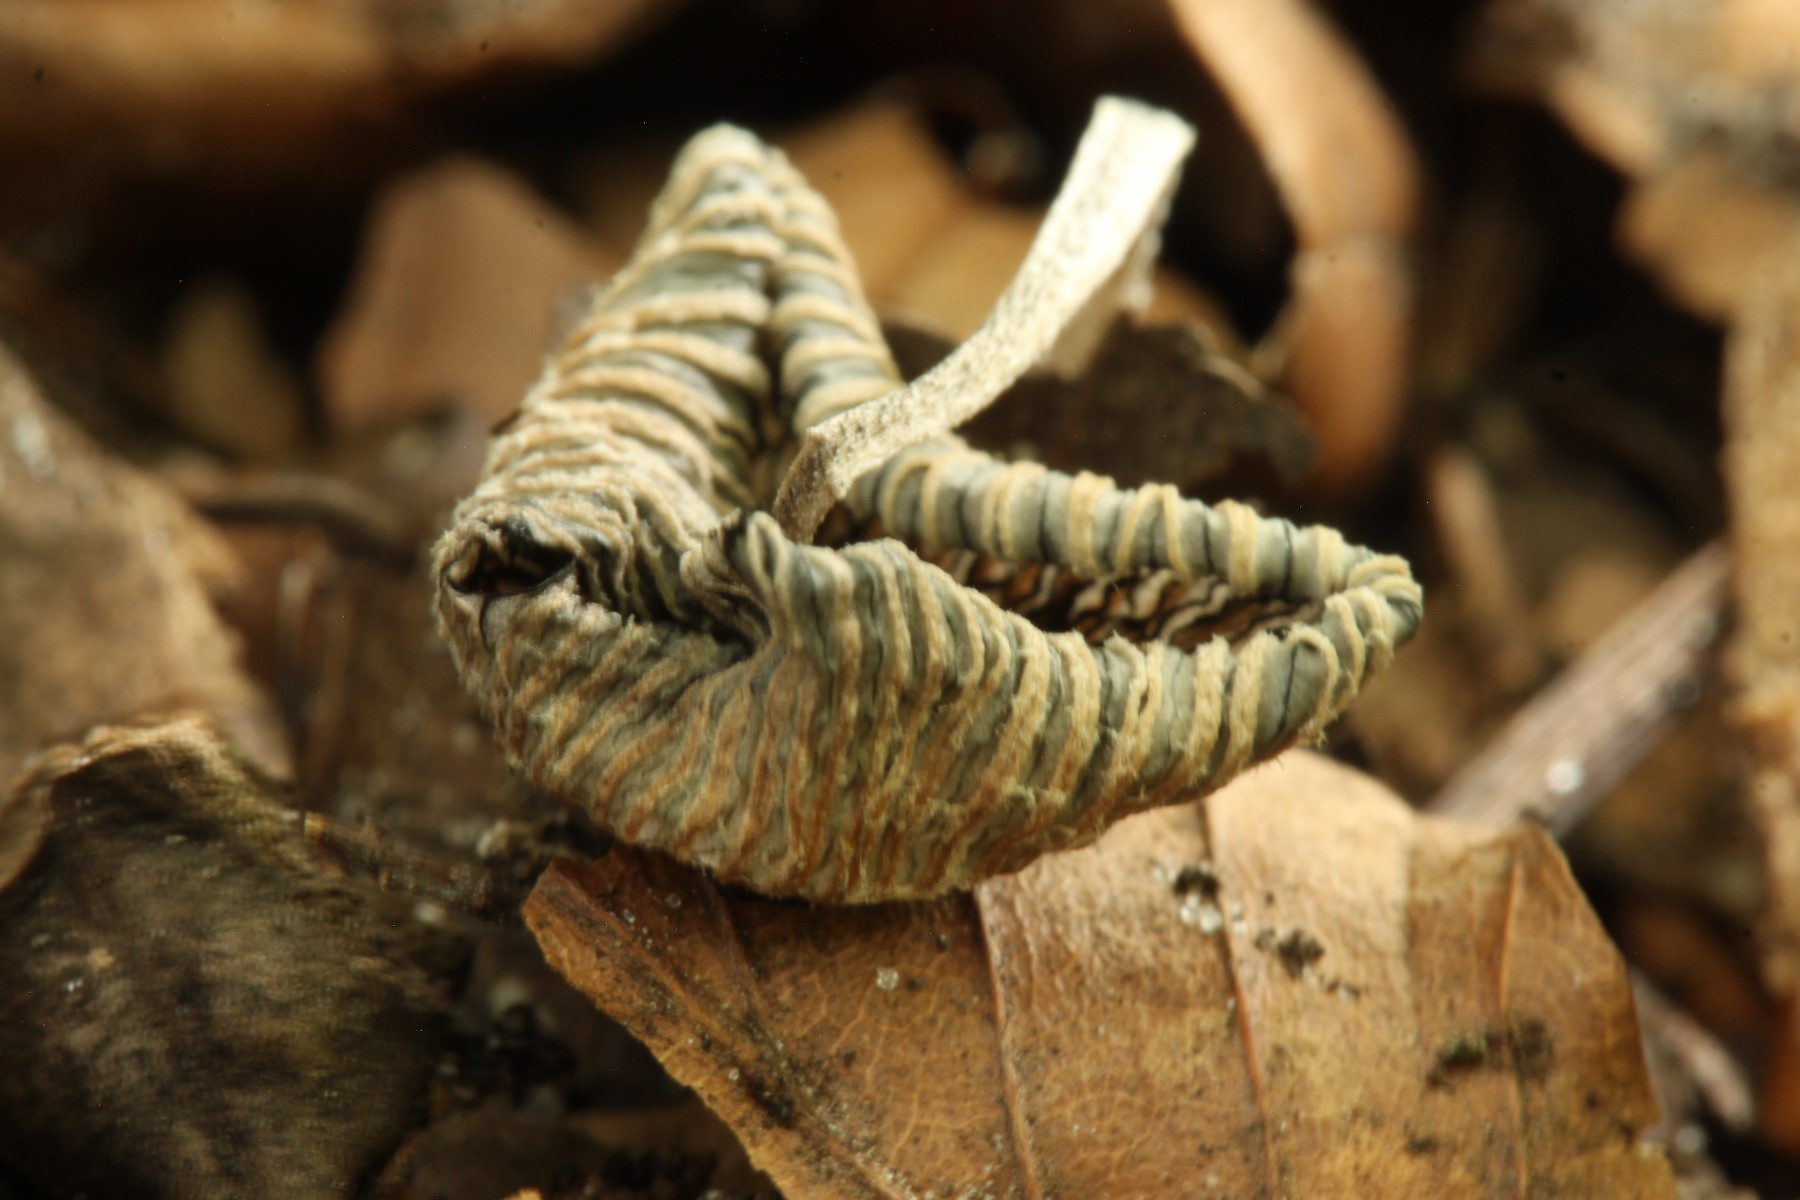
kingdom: Fungi
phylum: Basidiomycota
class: Agaricomycetes
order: Agaricales
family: Psathyrellaceae
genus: Coprinopsis
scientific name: Coprinopsis echinospora
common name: fuglemøg-blækhat
